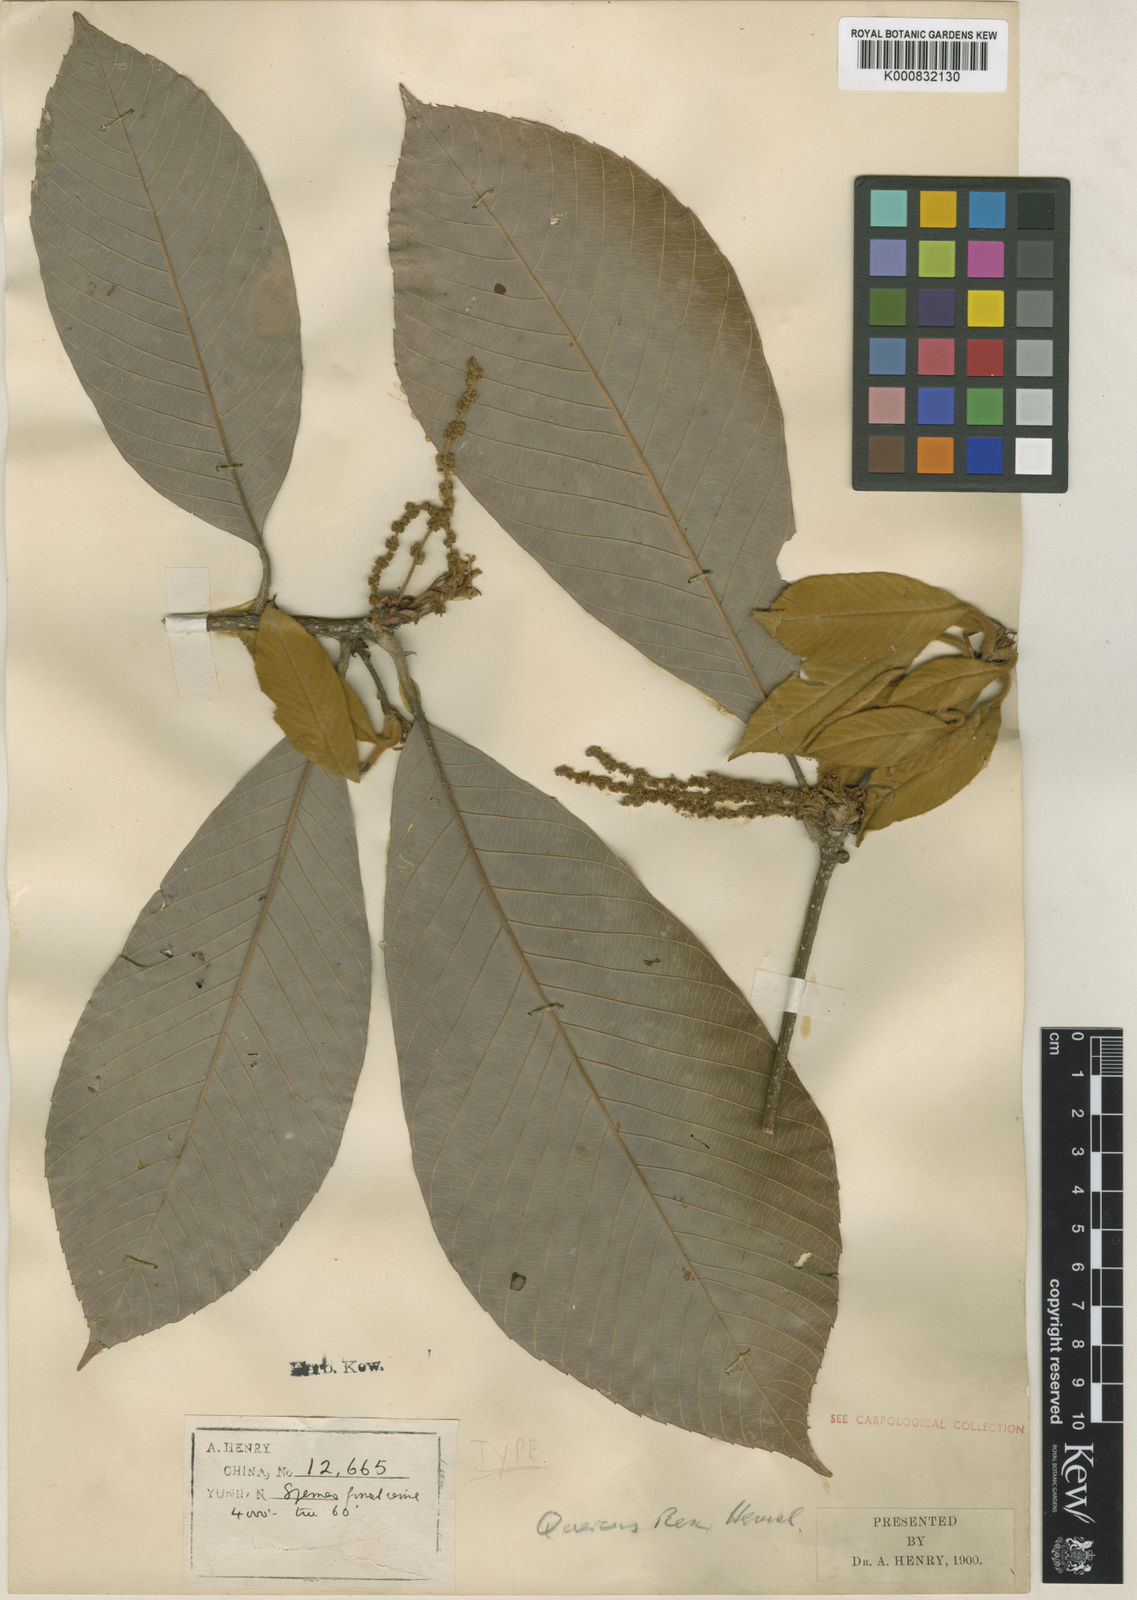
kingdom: Plantae
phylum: Tracheophyta
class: Magnoliopsida
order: Fagales
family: Fagaceae
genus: Quercus
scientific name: Quercus rex
